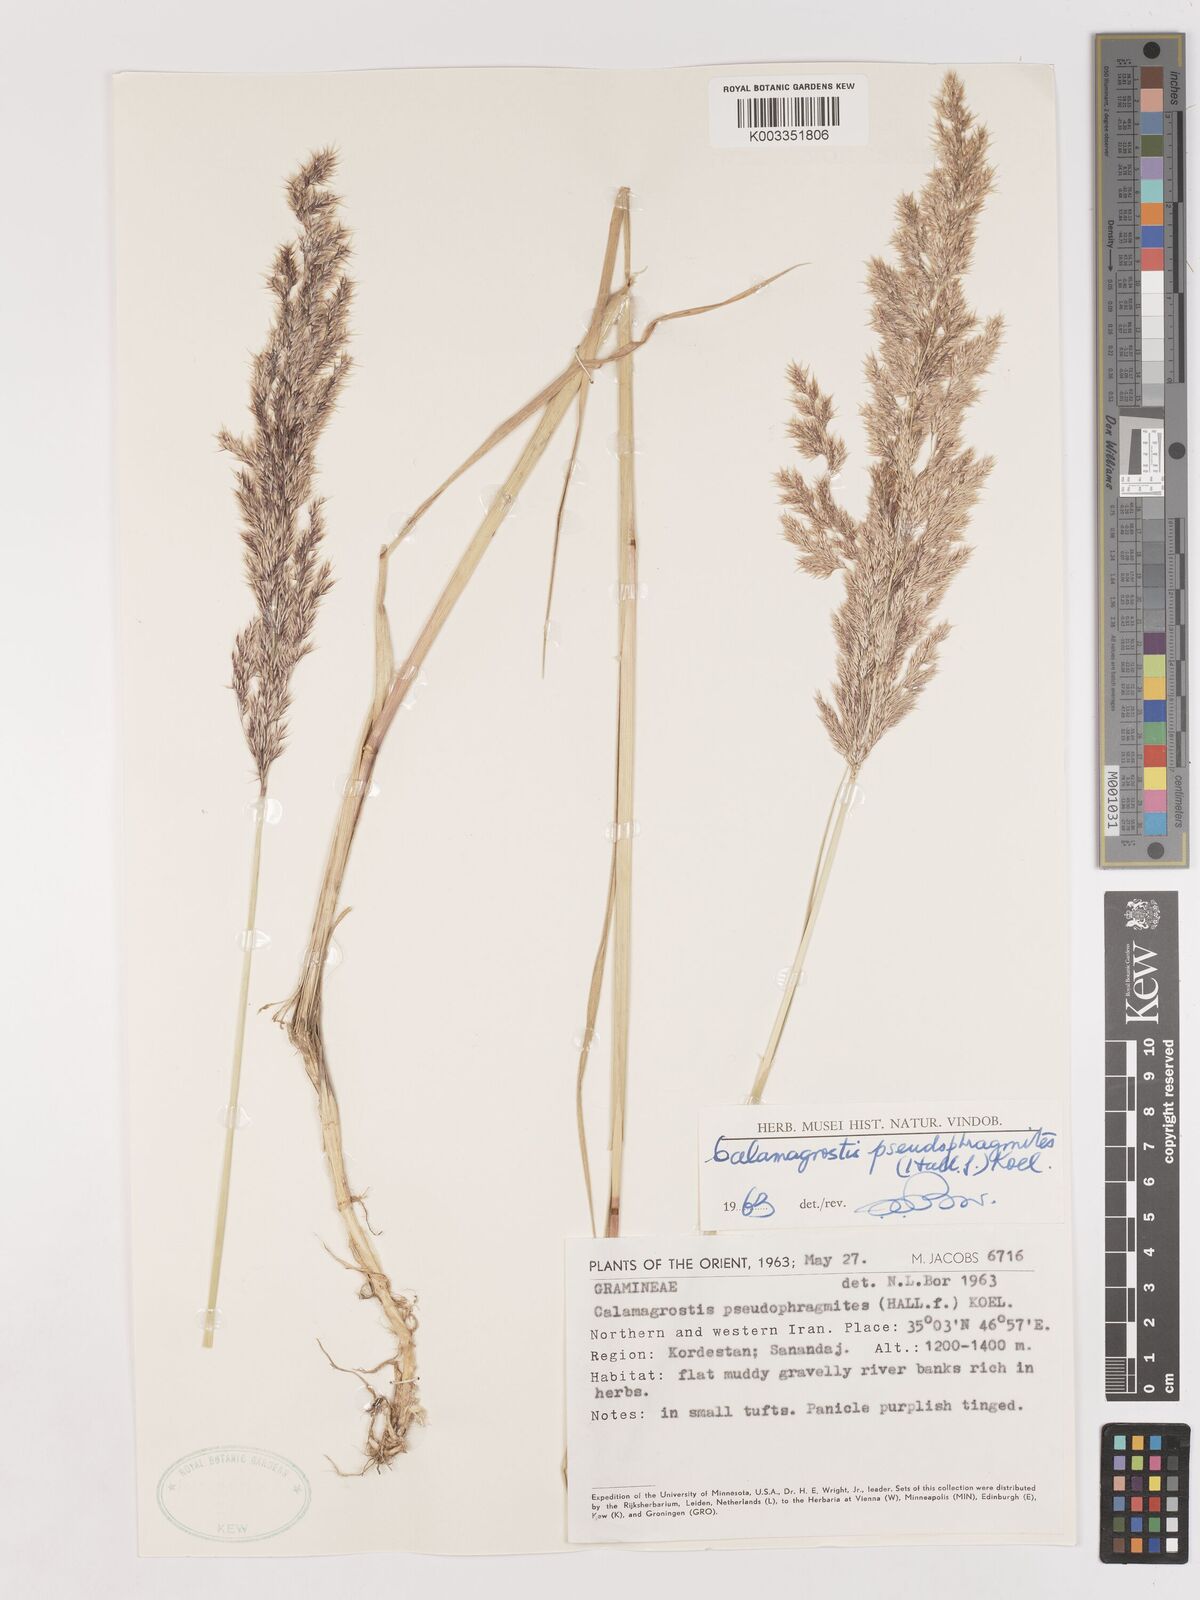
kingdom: Plantae
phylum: Tracheophyta
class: Liliopsida
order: Poales
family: Poaceae
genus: Calamagrostis
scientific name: Calamagrostis pseudophragmites
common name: Coastal small-reed
